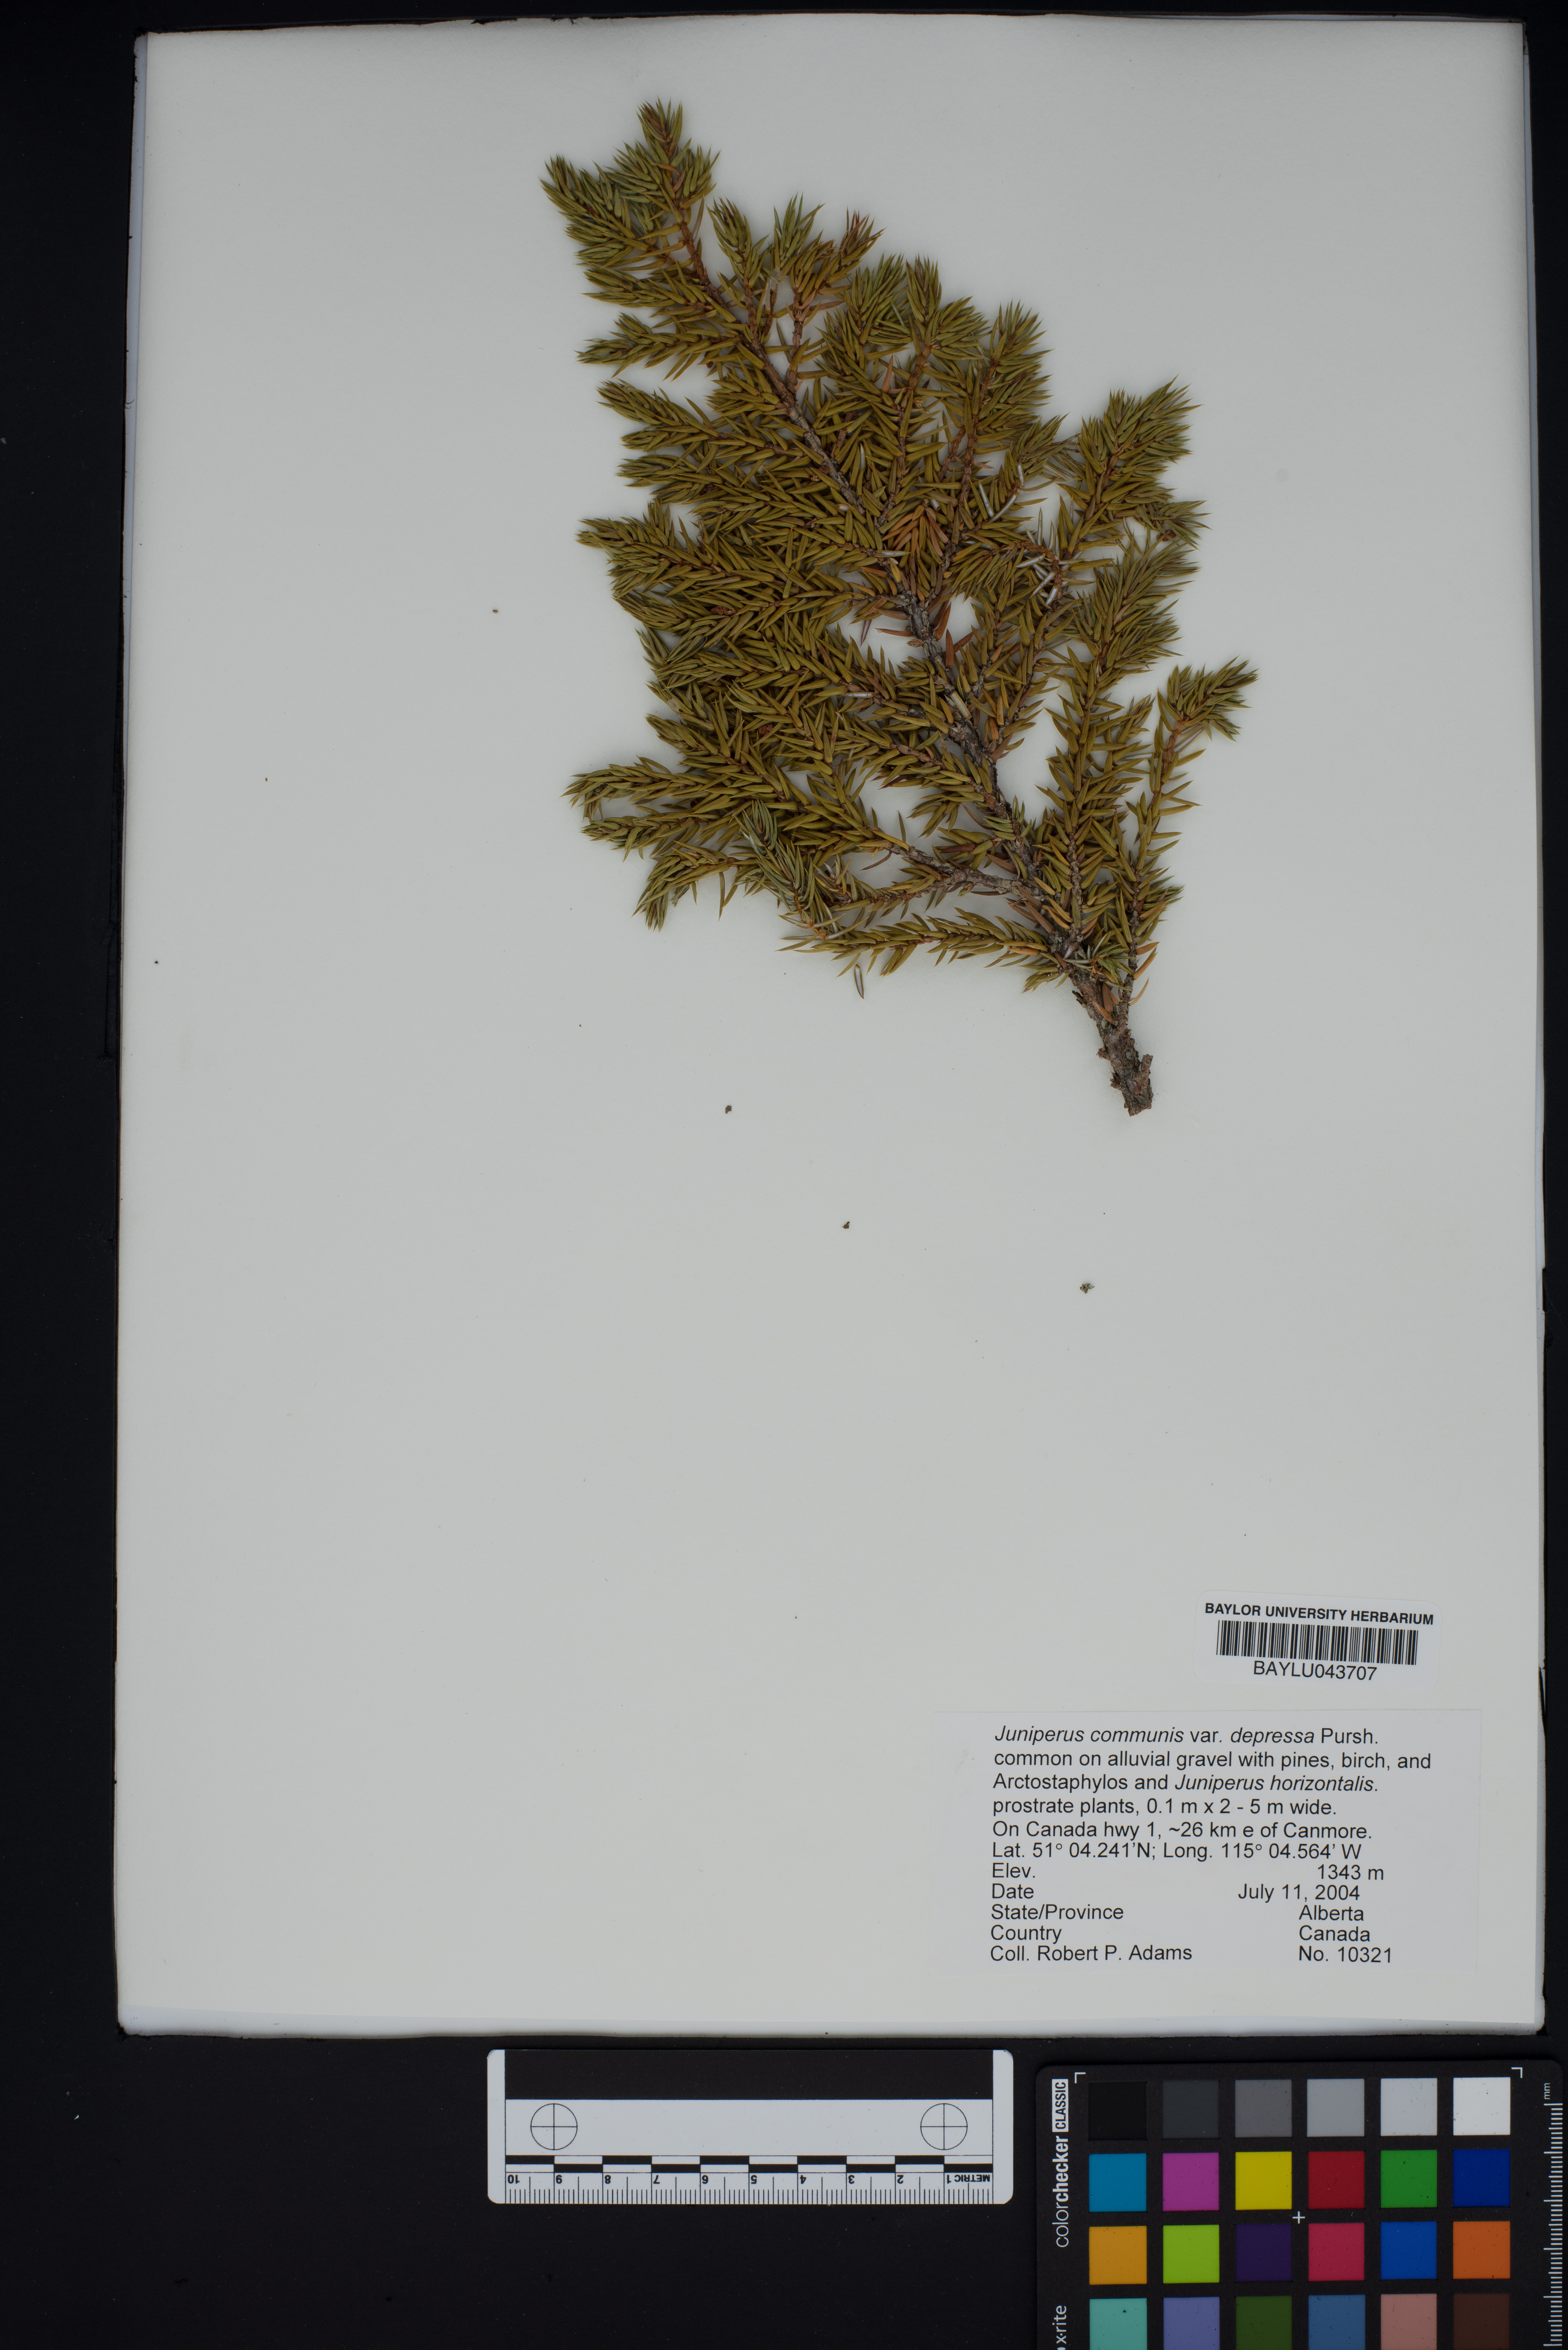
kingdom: Plantae
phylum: Tracheophyta
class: Pinopsida
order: Pinales
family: Cupressaceae
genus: Juniperus
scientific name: Juniperus communis
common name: Common juniper
